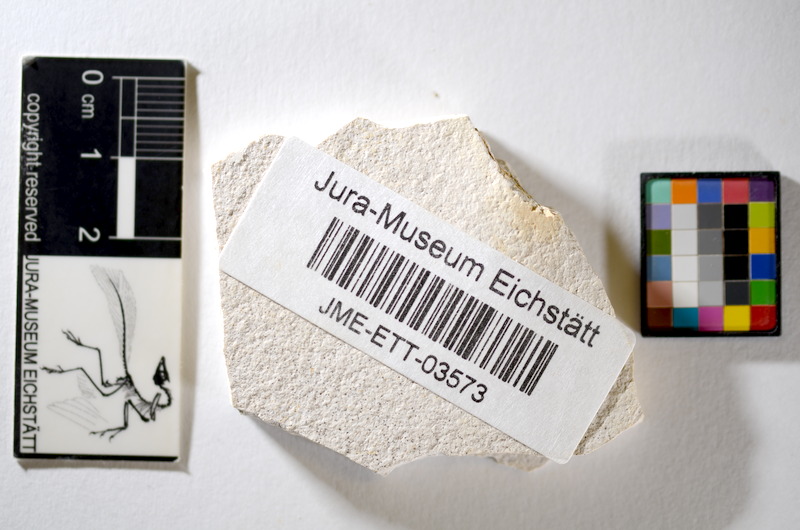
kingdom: Animalia
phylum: Chordata
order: Salmoniformes
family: Orthogonikleithridae
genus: Orthogonikleithrus
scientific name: Orthogonikleithrus hoelli
